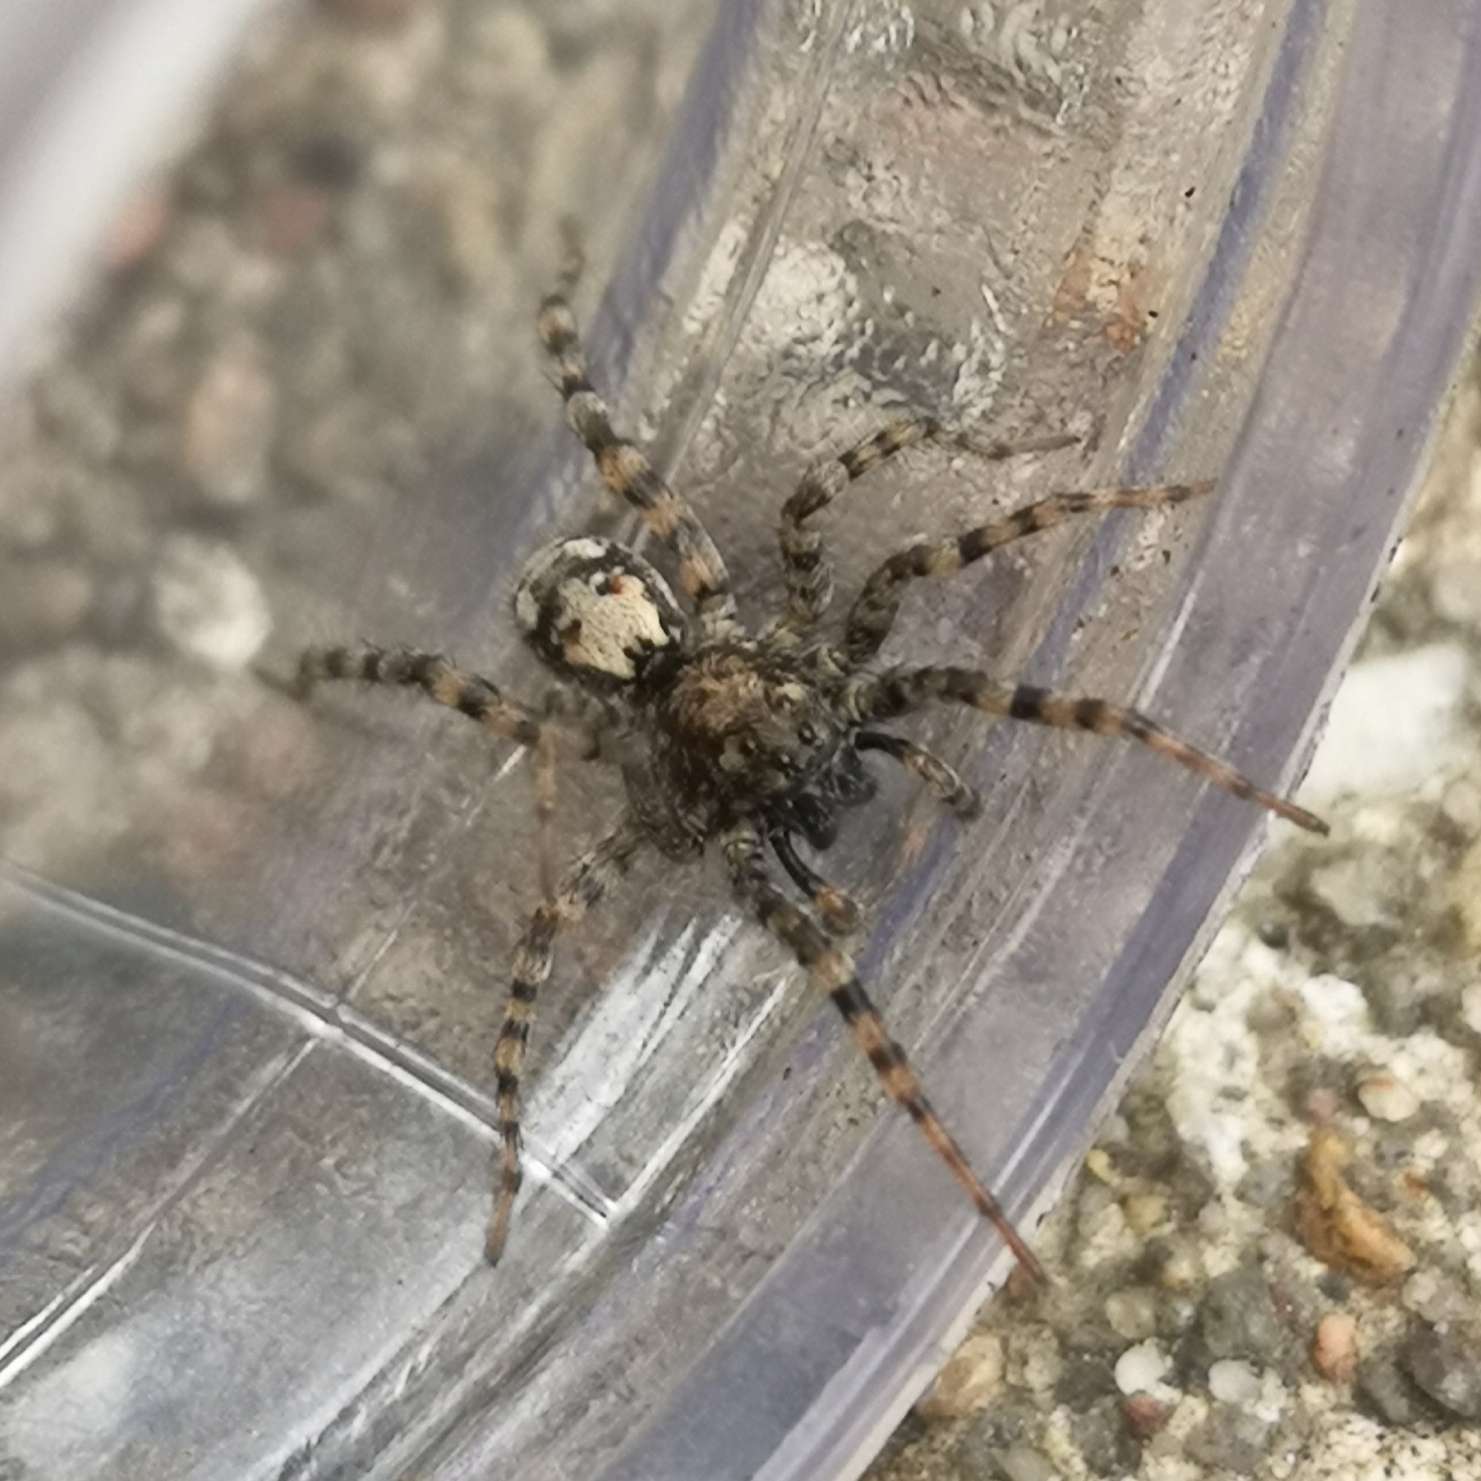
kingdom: Animalia
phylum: Arthropoda
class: Arachnida
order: Araneae
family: Lycosidae
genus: Arctosa
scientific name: Arctosa perita
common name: Klitgraveedderkop
